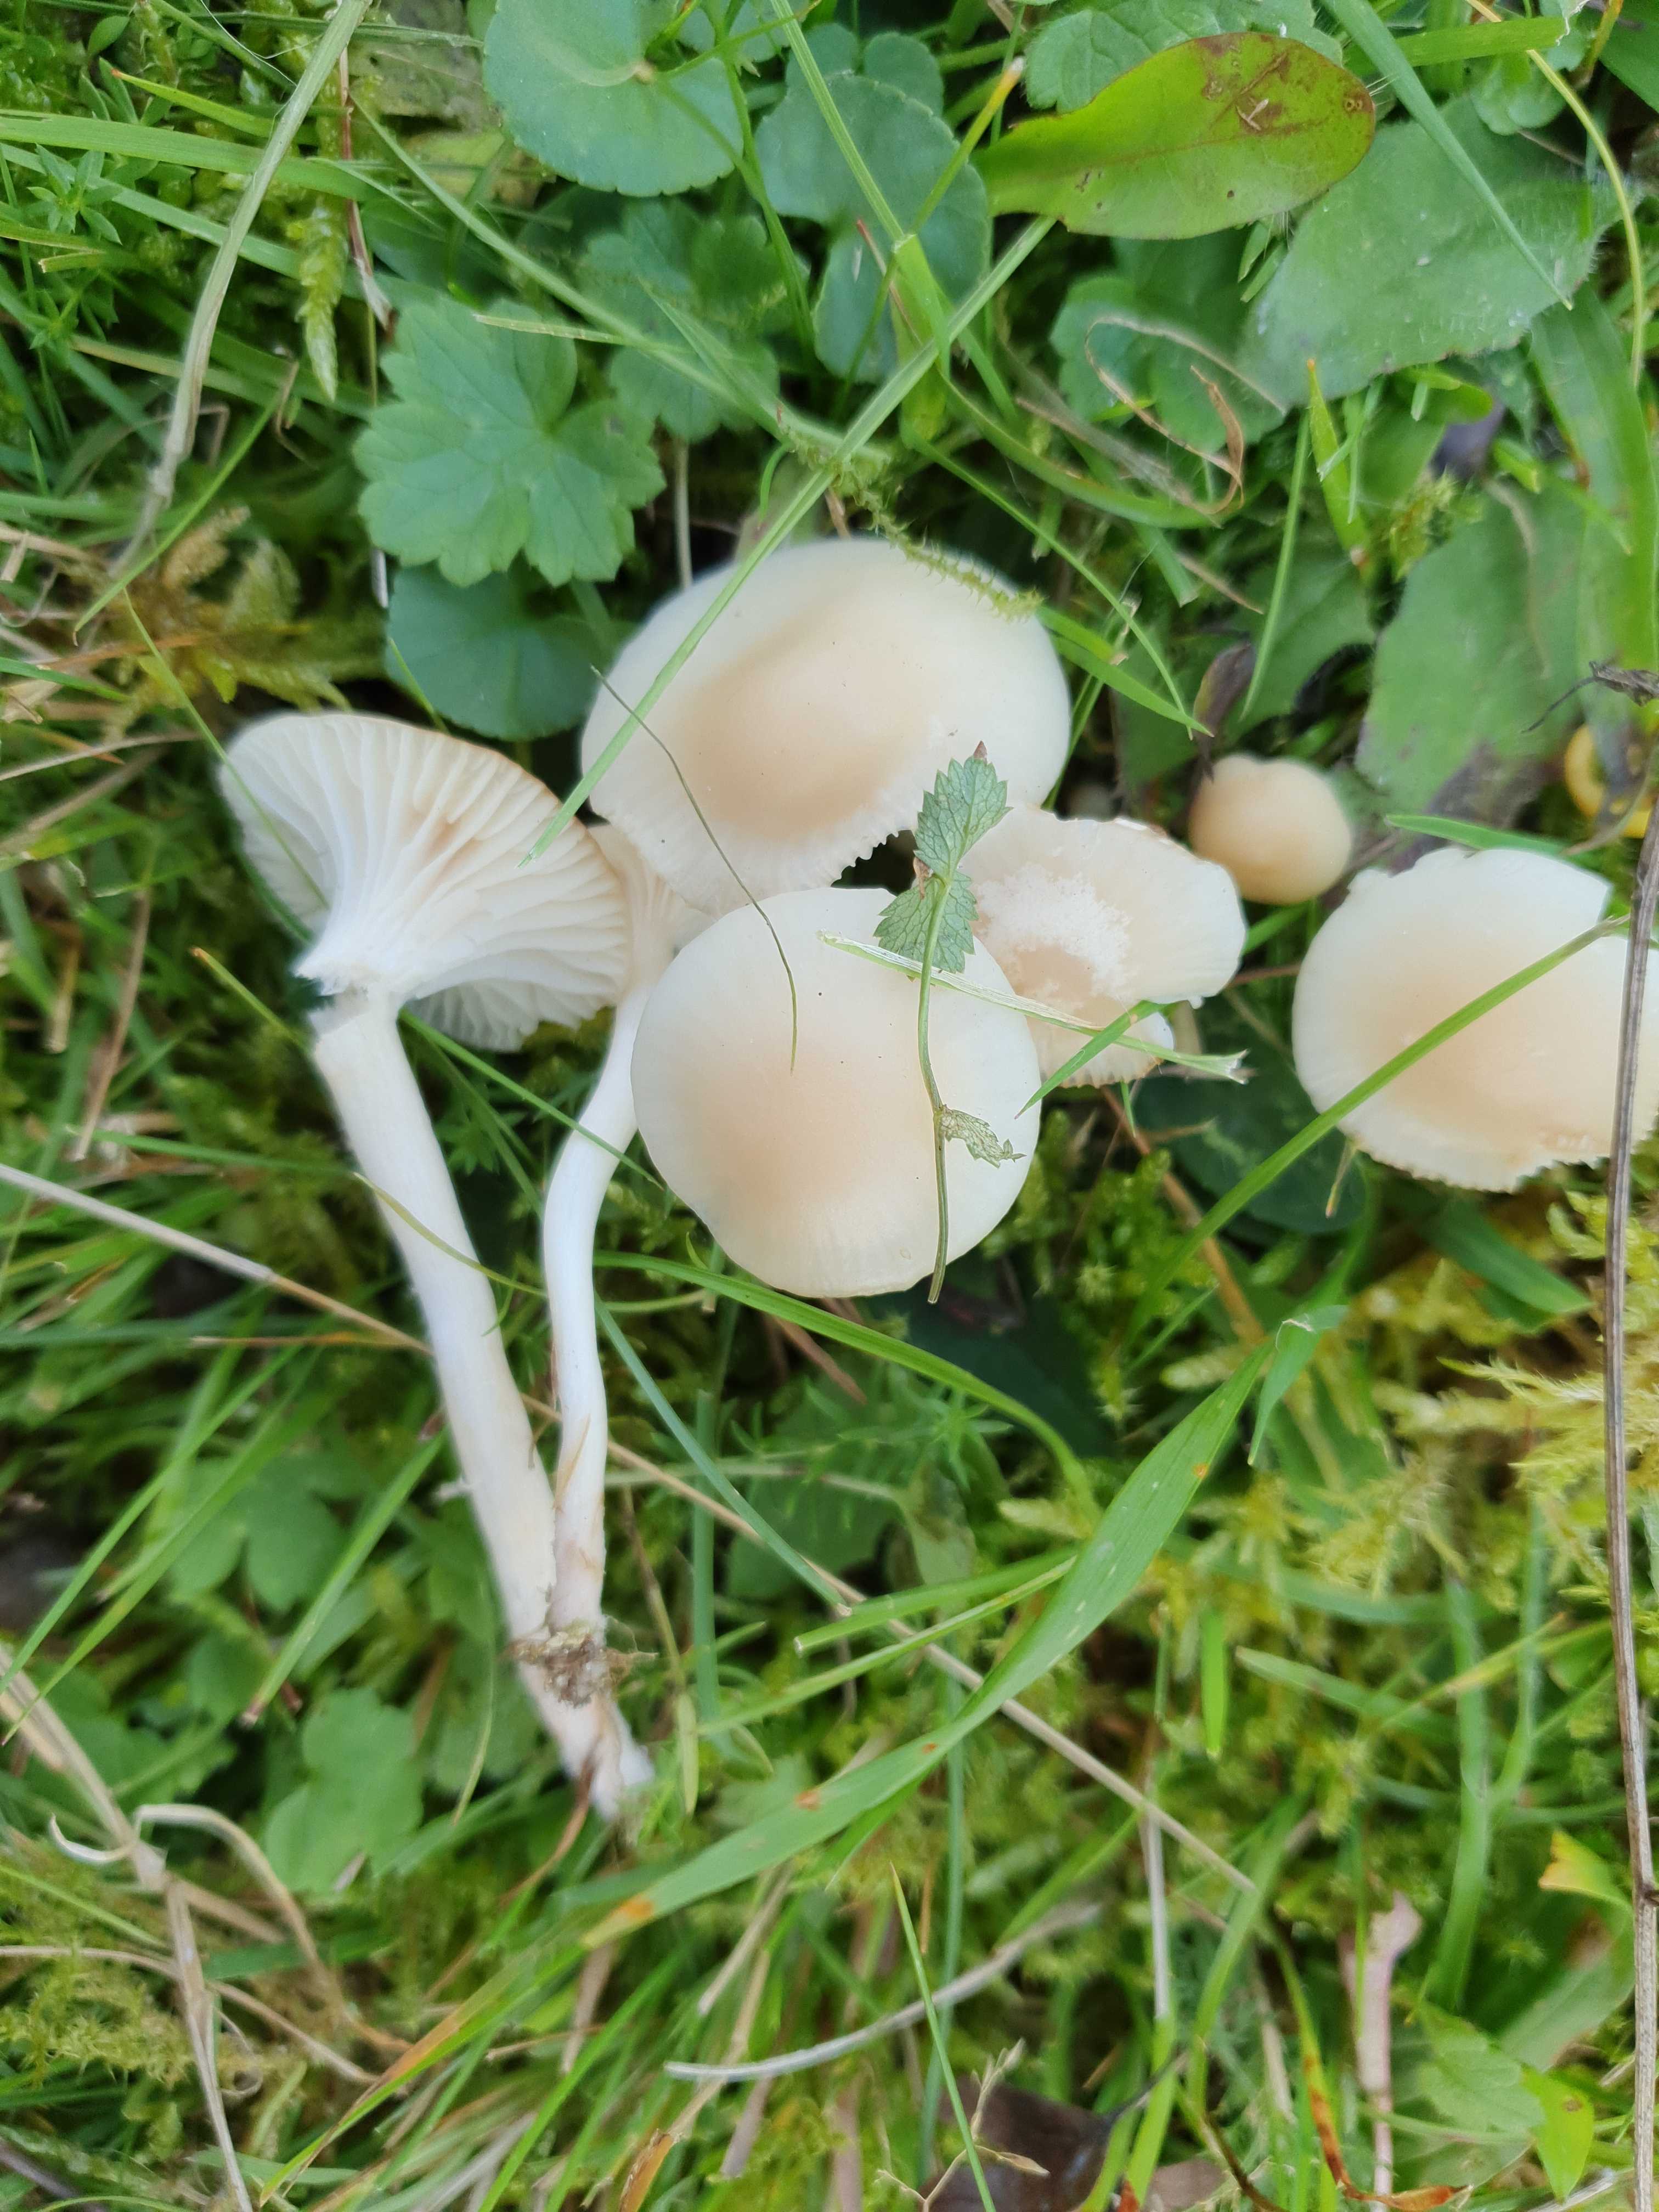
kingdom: Fungi
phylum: Basidiomycota
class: Agaricomycetes
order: Agaricales
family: Hygrophoraceae
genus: Cuphophyllus
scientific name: Cuphophyllus russocoriaceus
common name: ruslæder-vokshat
